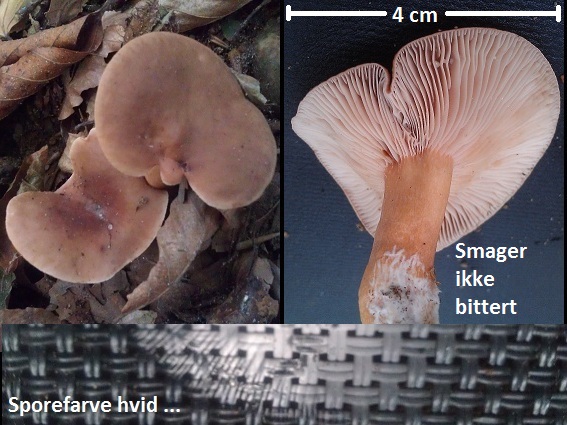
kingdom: Fungi
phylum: Basidiomycota
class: Agaricomycetes
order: Russulales
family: Russulaceae
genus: Lactarius
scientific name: Lactarius subdulcis
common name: sødlig mælkehat
